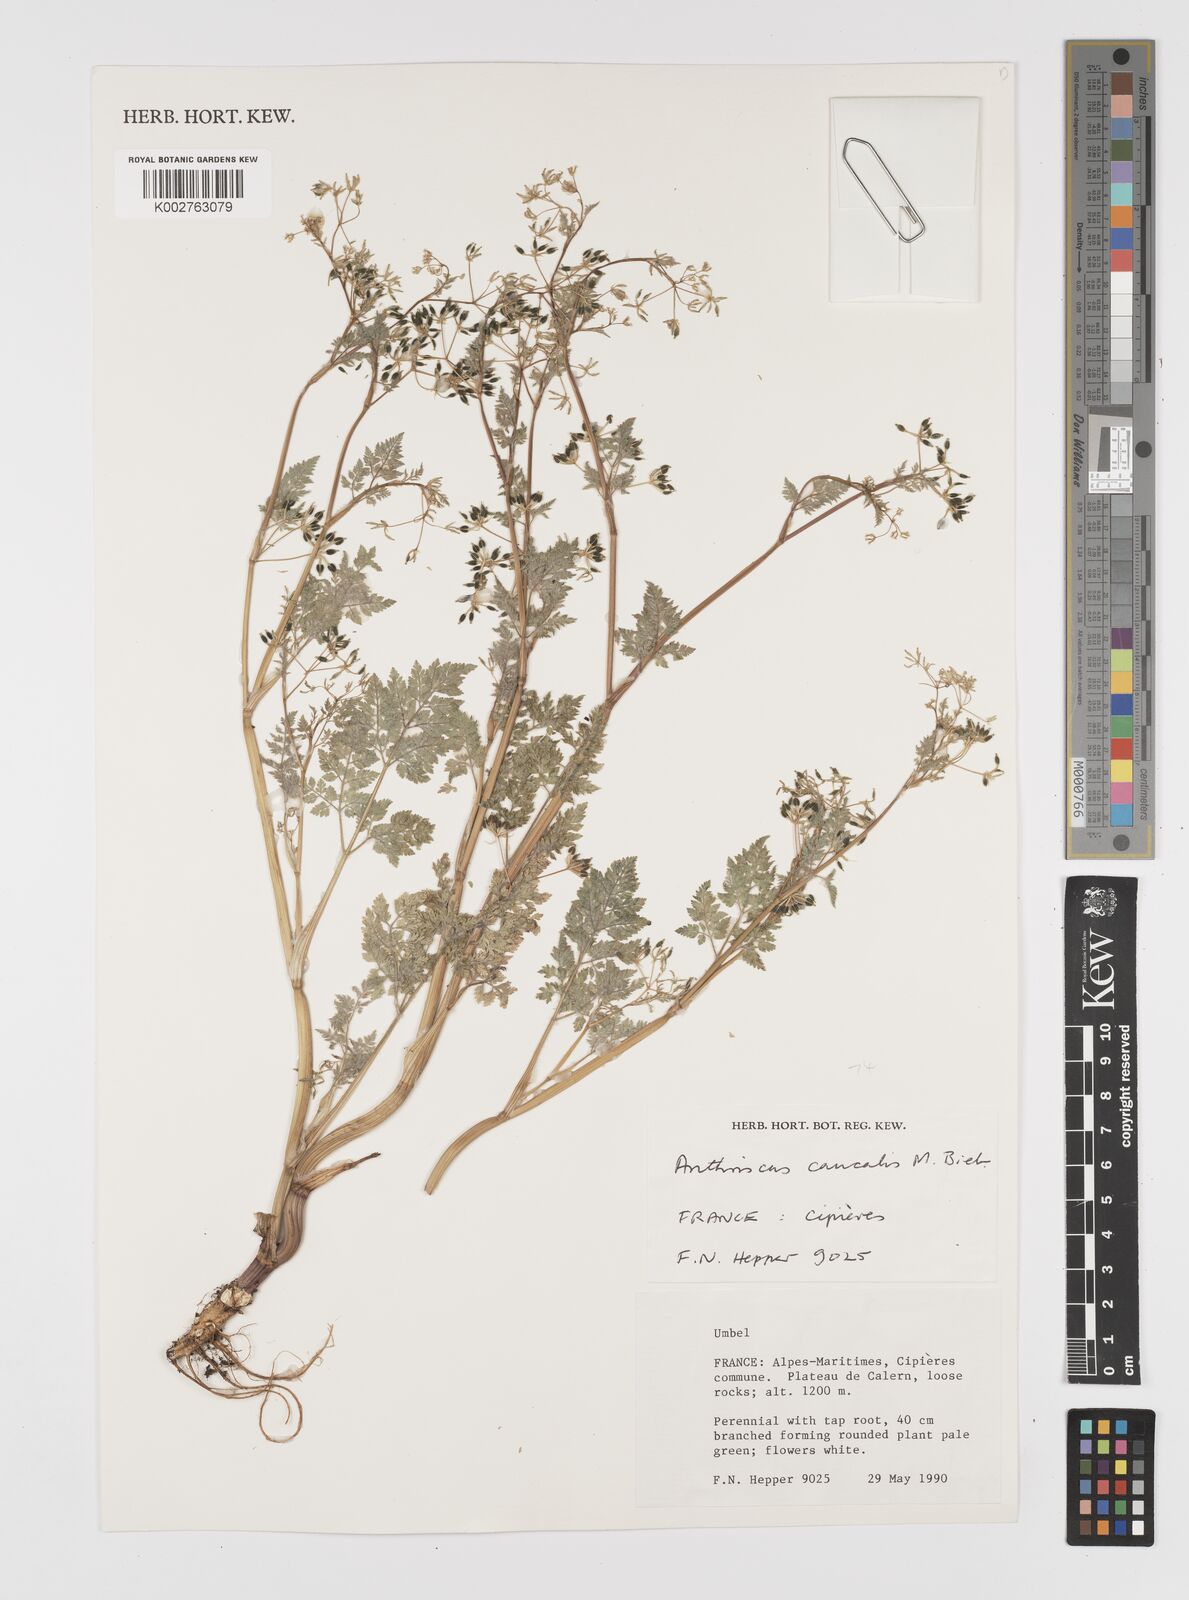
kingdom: Plantae
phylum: Tracheophyta
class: Magnoliopsida
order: Apiales
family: Apiaceae
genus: Anthriscus
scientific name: Anthriscus caucalis
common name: Bur chervil
